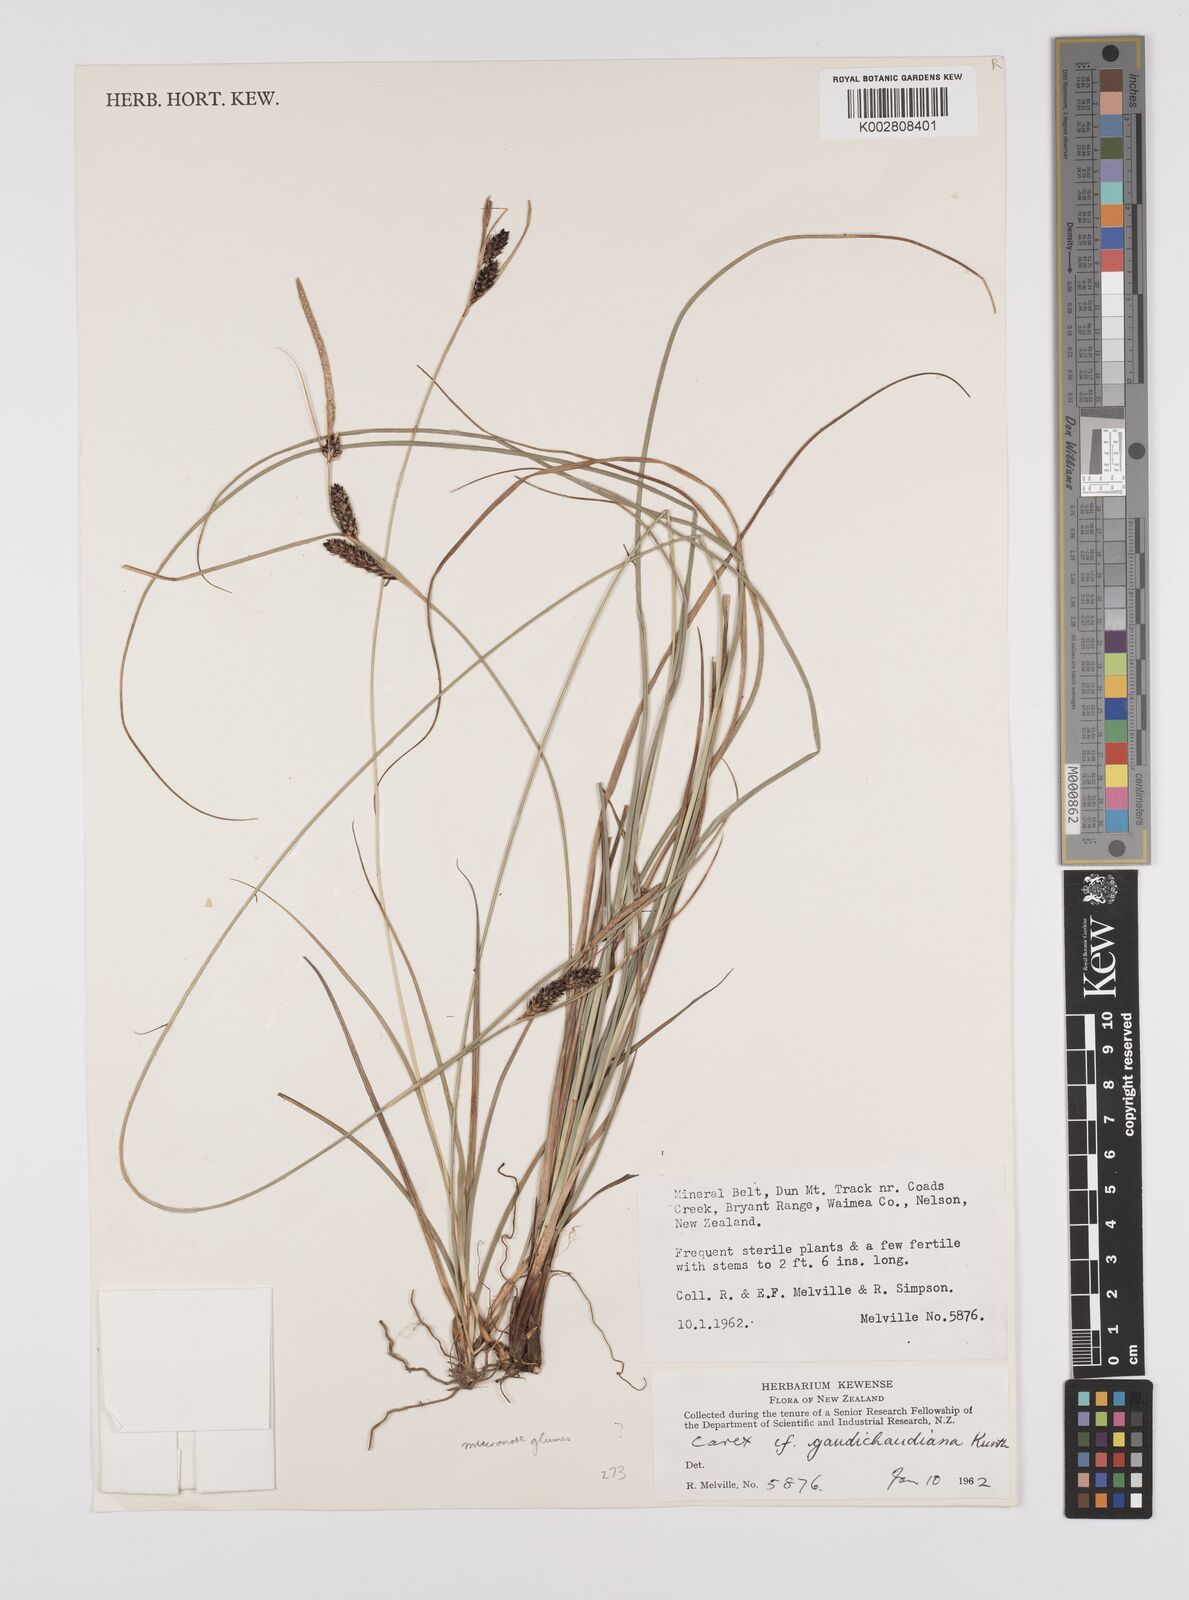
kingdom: Plantae
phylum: Tracheophyta
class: Liliopsida
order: Poales
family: Cyperaceae
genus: Carex
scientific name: Carex gaudichaudiana
